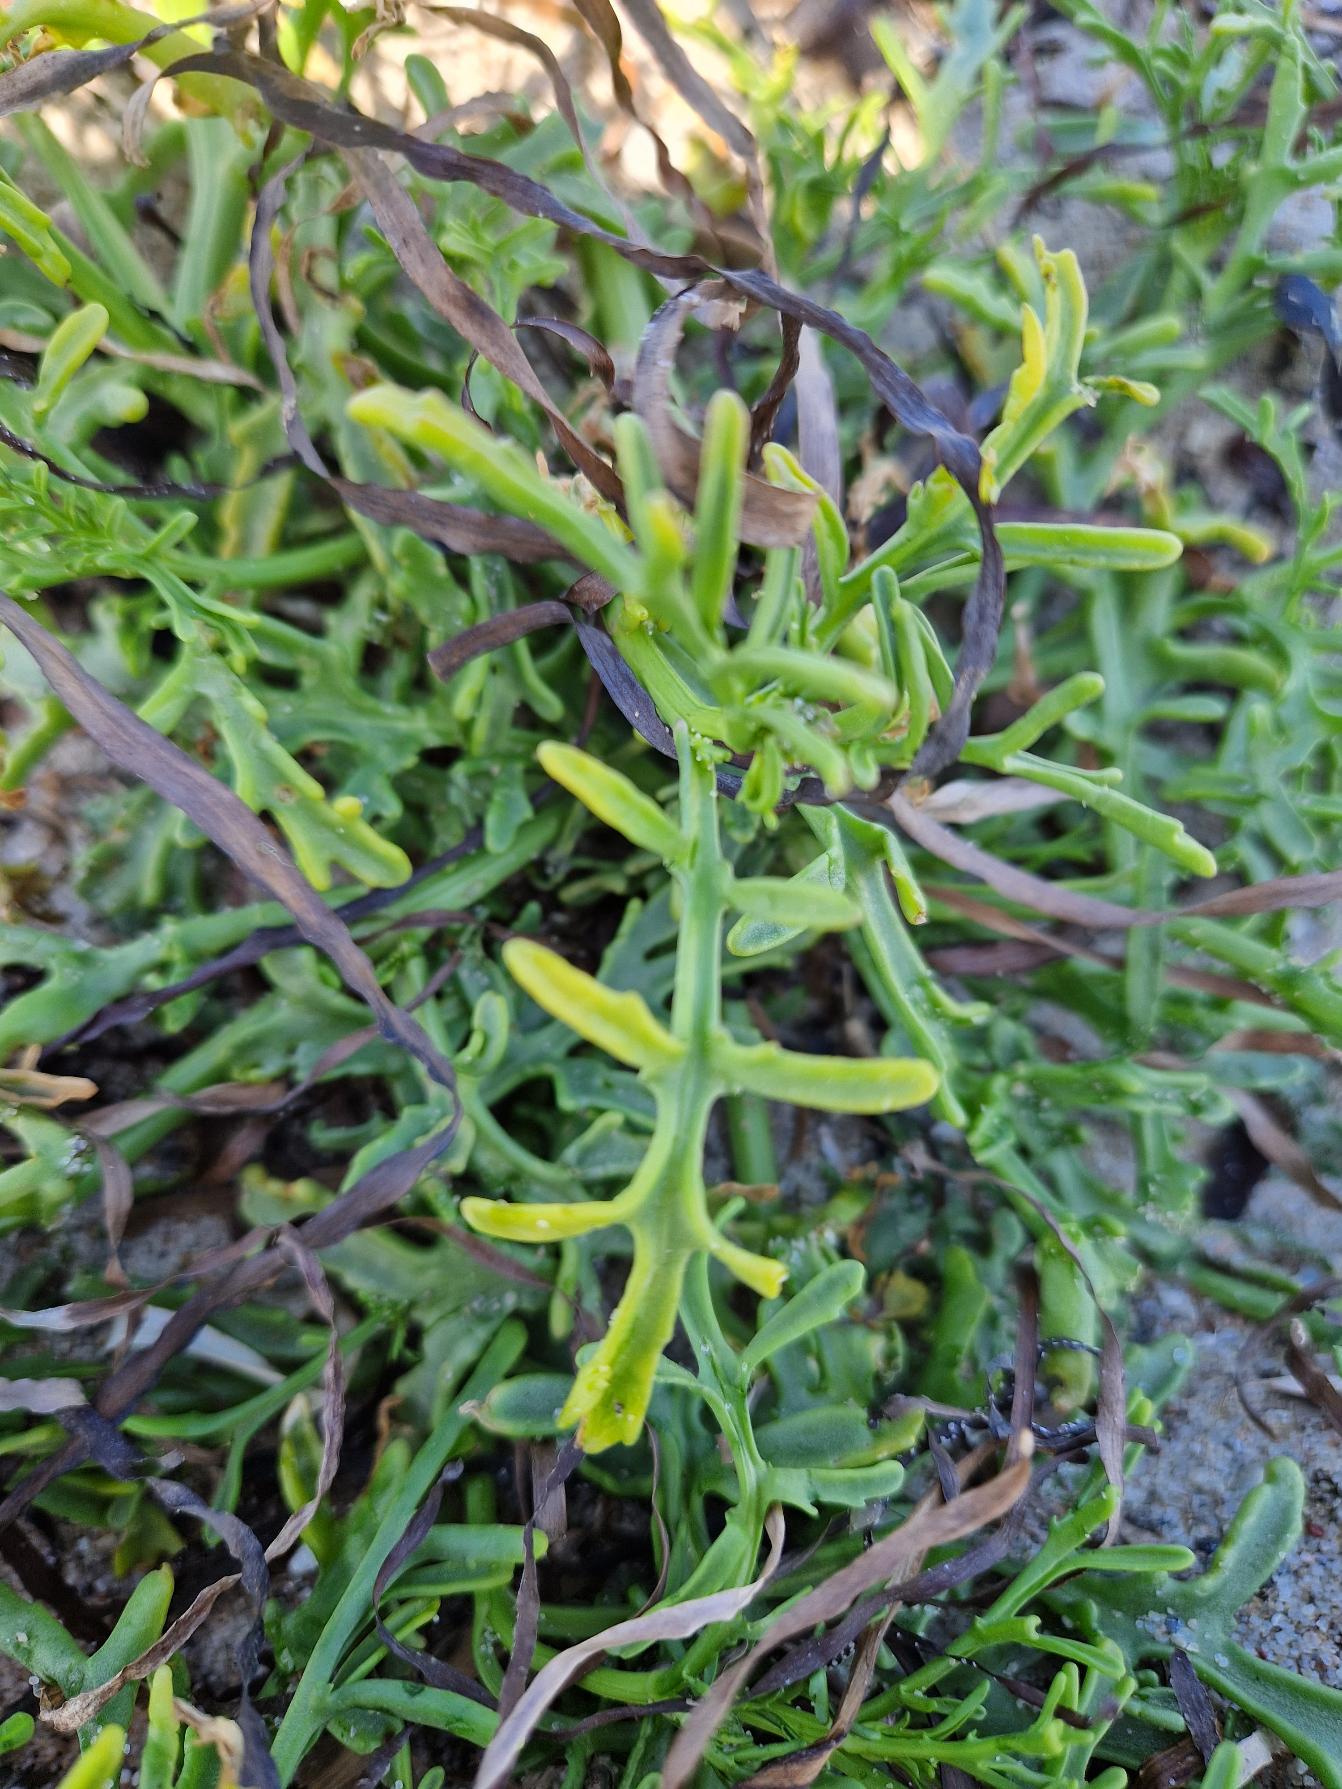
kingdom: Plantae
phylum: Tracheophyta
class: Magnoliopsida
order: Brassicales
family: Brassicaceae
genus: Cakile
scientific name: Cakile maritima
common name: Strandsennep
